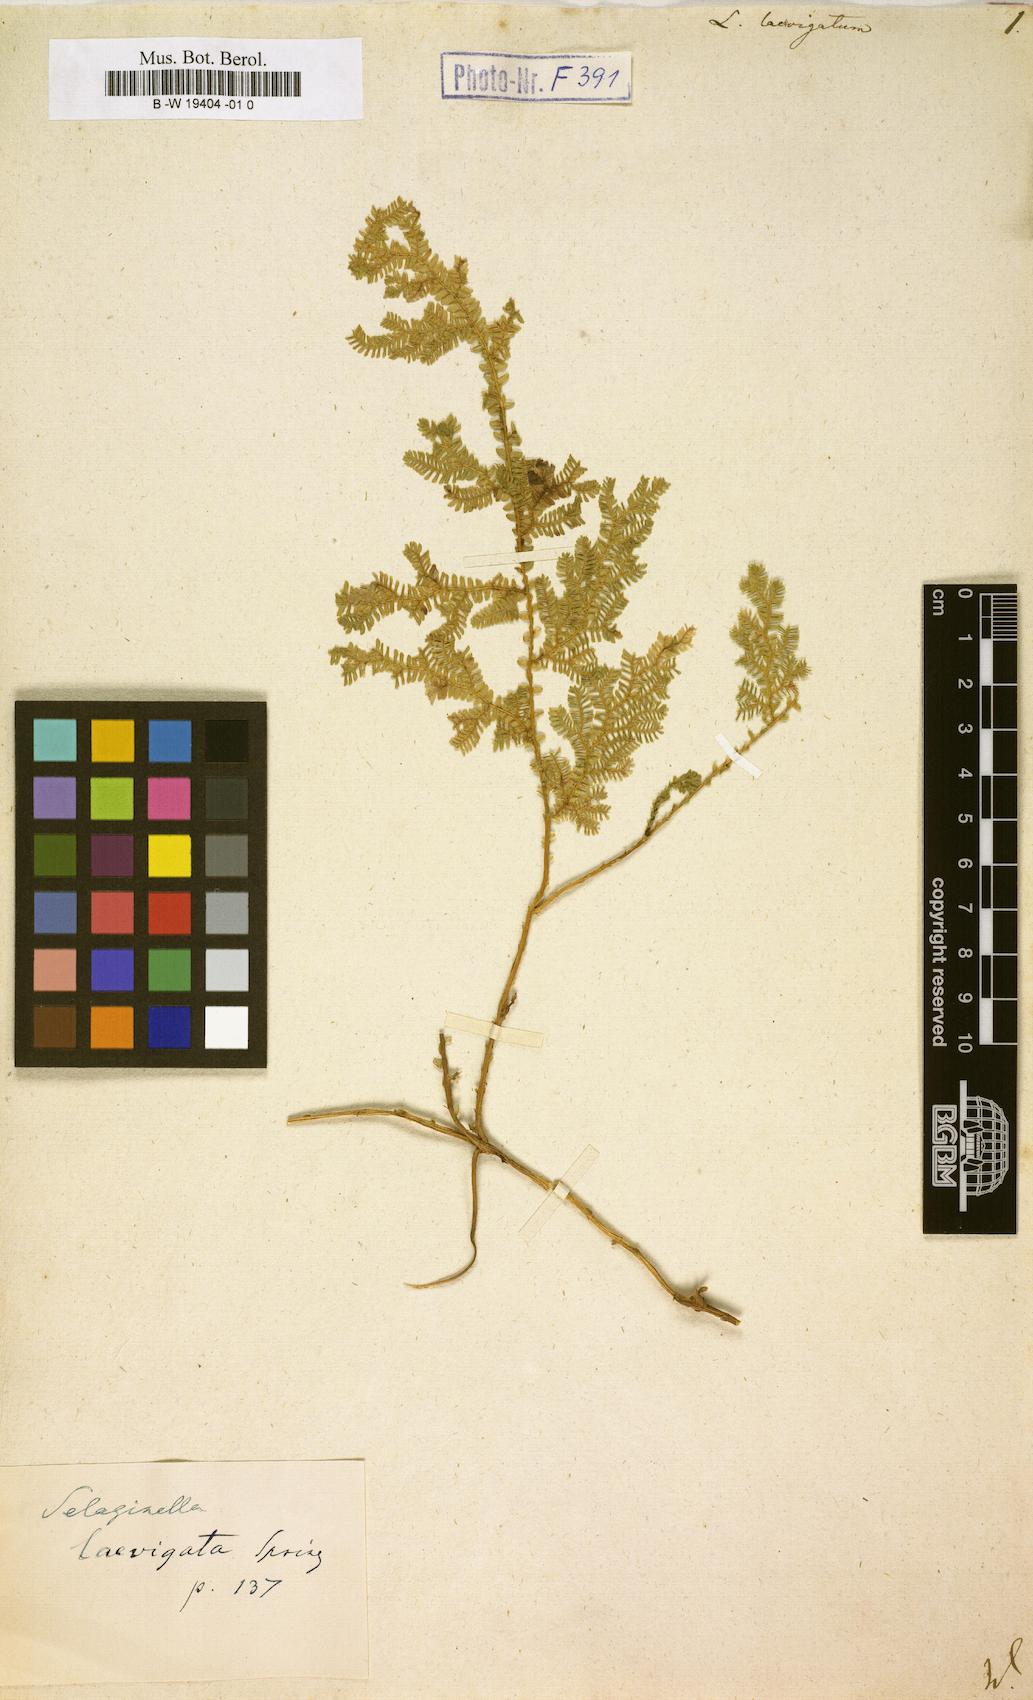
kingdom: Plantae
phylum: Tracheophyta
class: Lycopodiopsida
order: Selaginellales
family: Selaginellaceae
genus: Selaginella
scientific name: Selaginella
